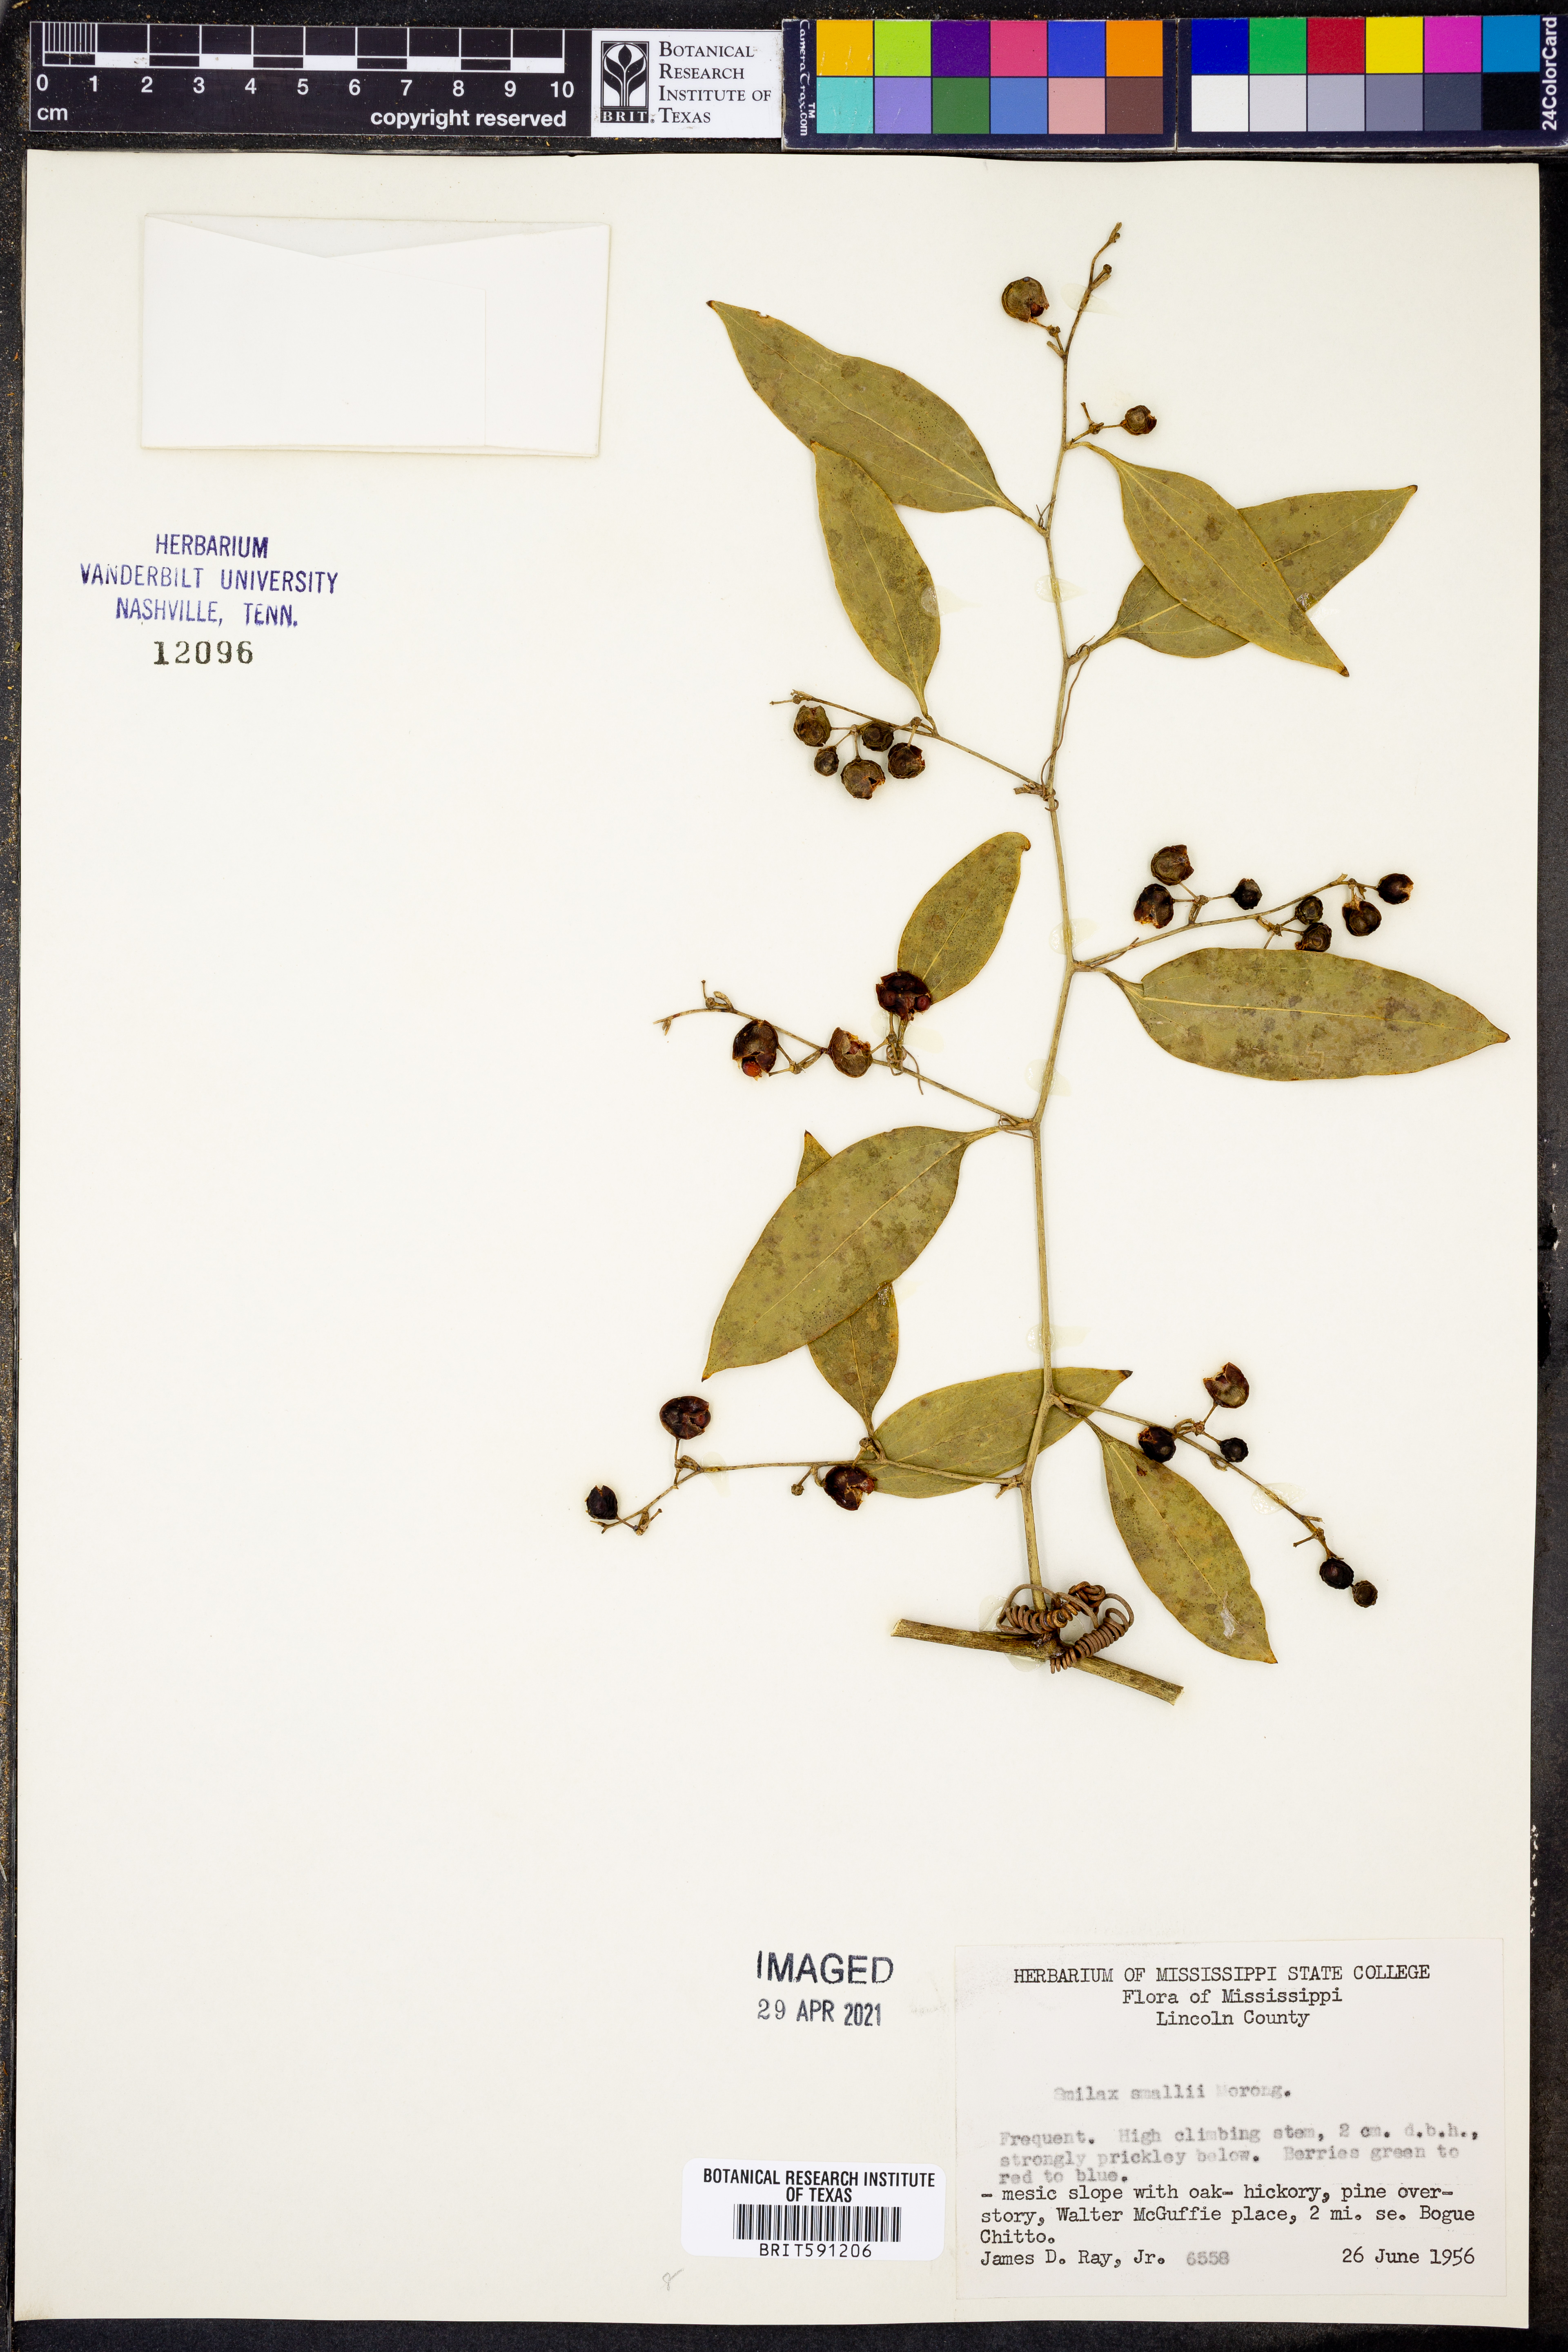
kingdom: Plantae
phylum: Tracheophyta
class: Liliopsida
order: Liliales
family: Smilacaceae
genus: Smilax
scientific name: Smilax maritima
